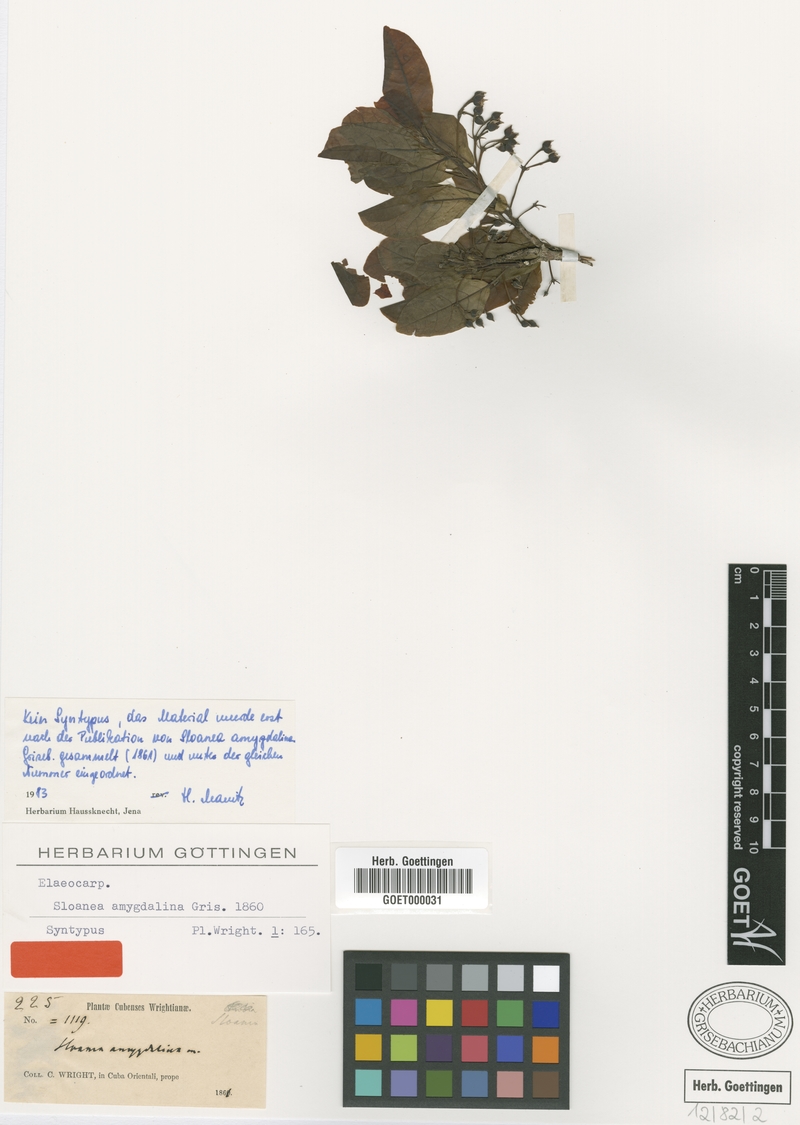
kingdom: Plantae
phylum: Tracheophyta
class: Magnoliopsida
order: Oxalidales
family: Elaeocarpaceae
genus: Sloanea
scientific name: Sloanea amygdalina
